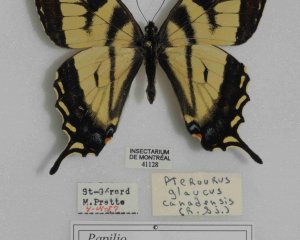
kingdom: Animalia
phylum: Arthropoda
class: Insecta
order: Lepidoptera
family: Papilionidae
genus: Pterourus
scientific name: Pterourus canadensis
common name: Canadian Tiger Swallowtail
